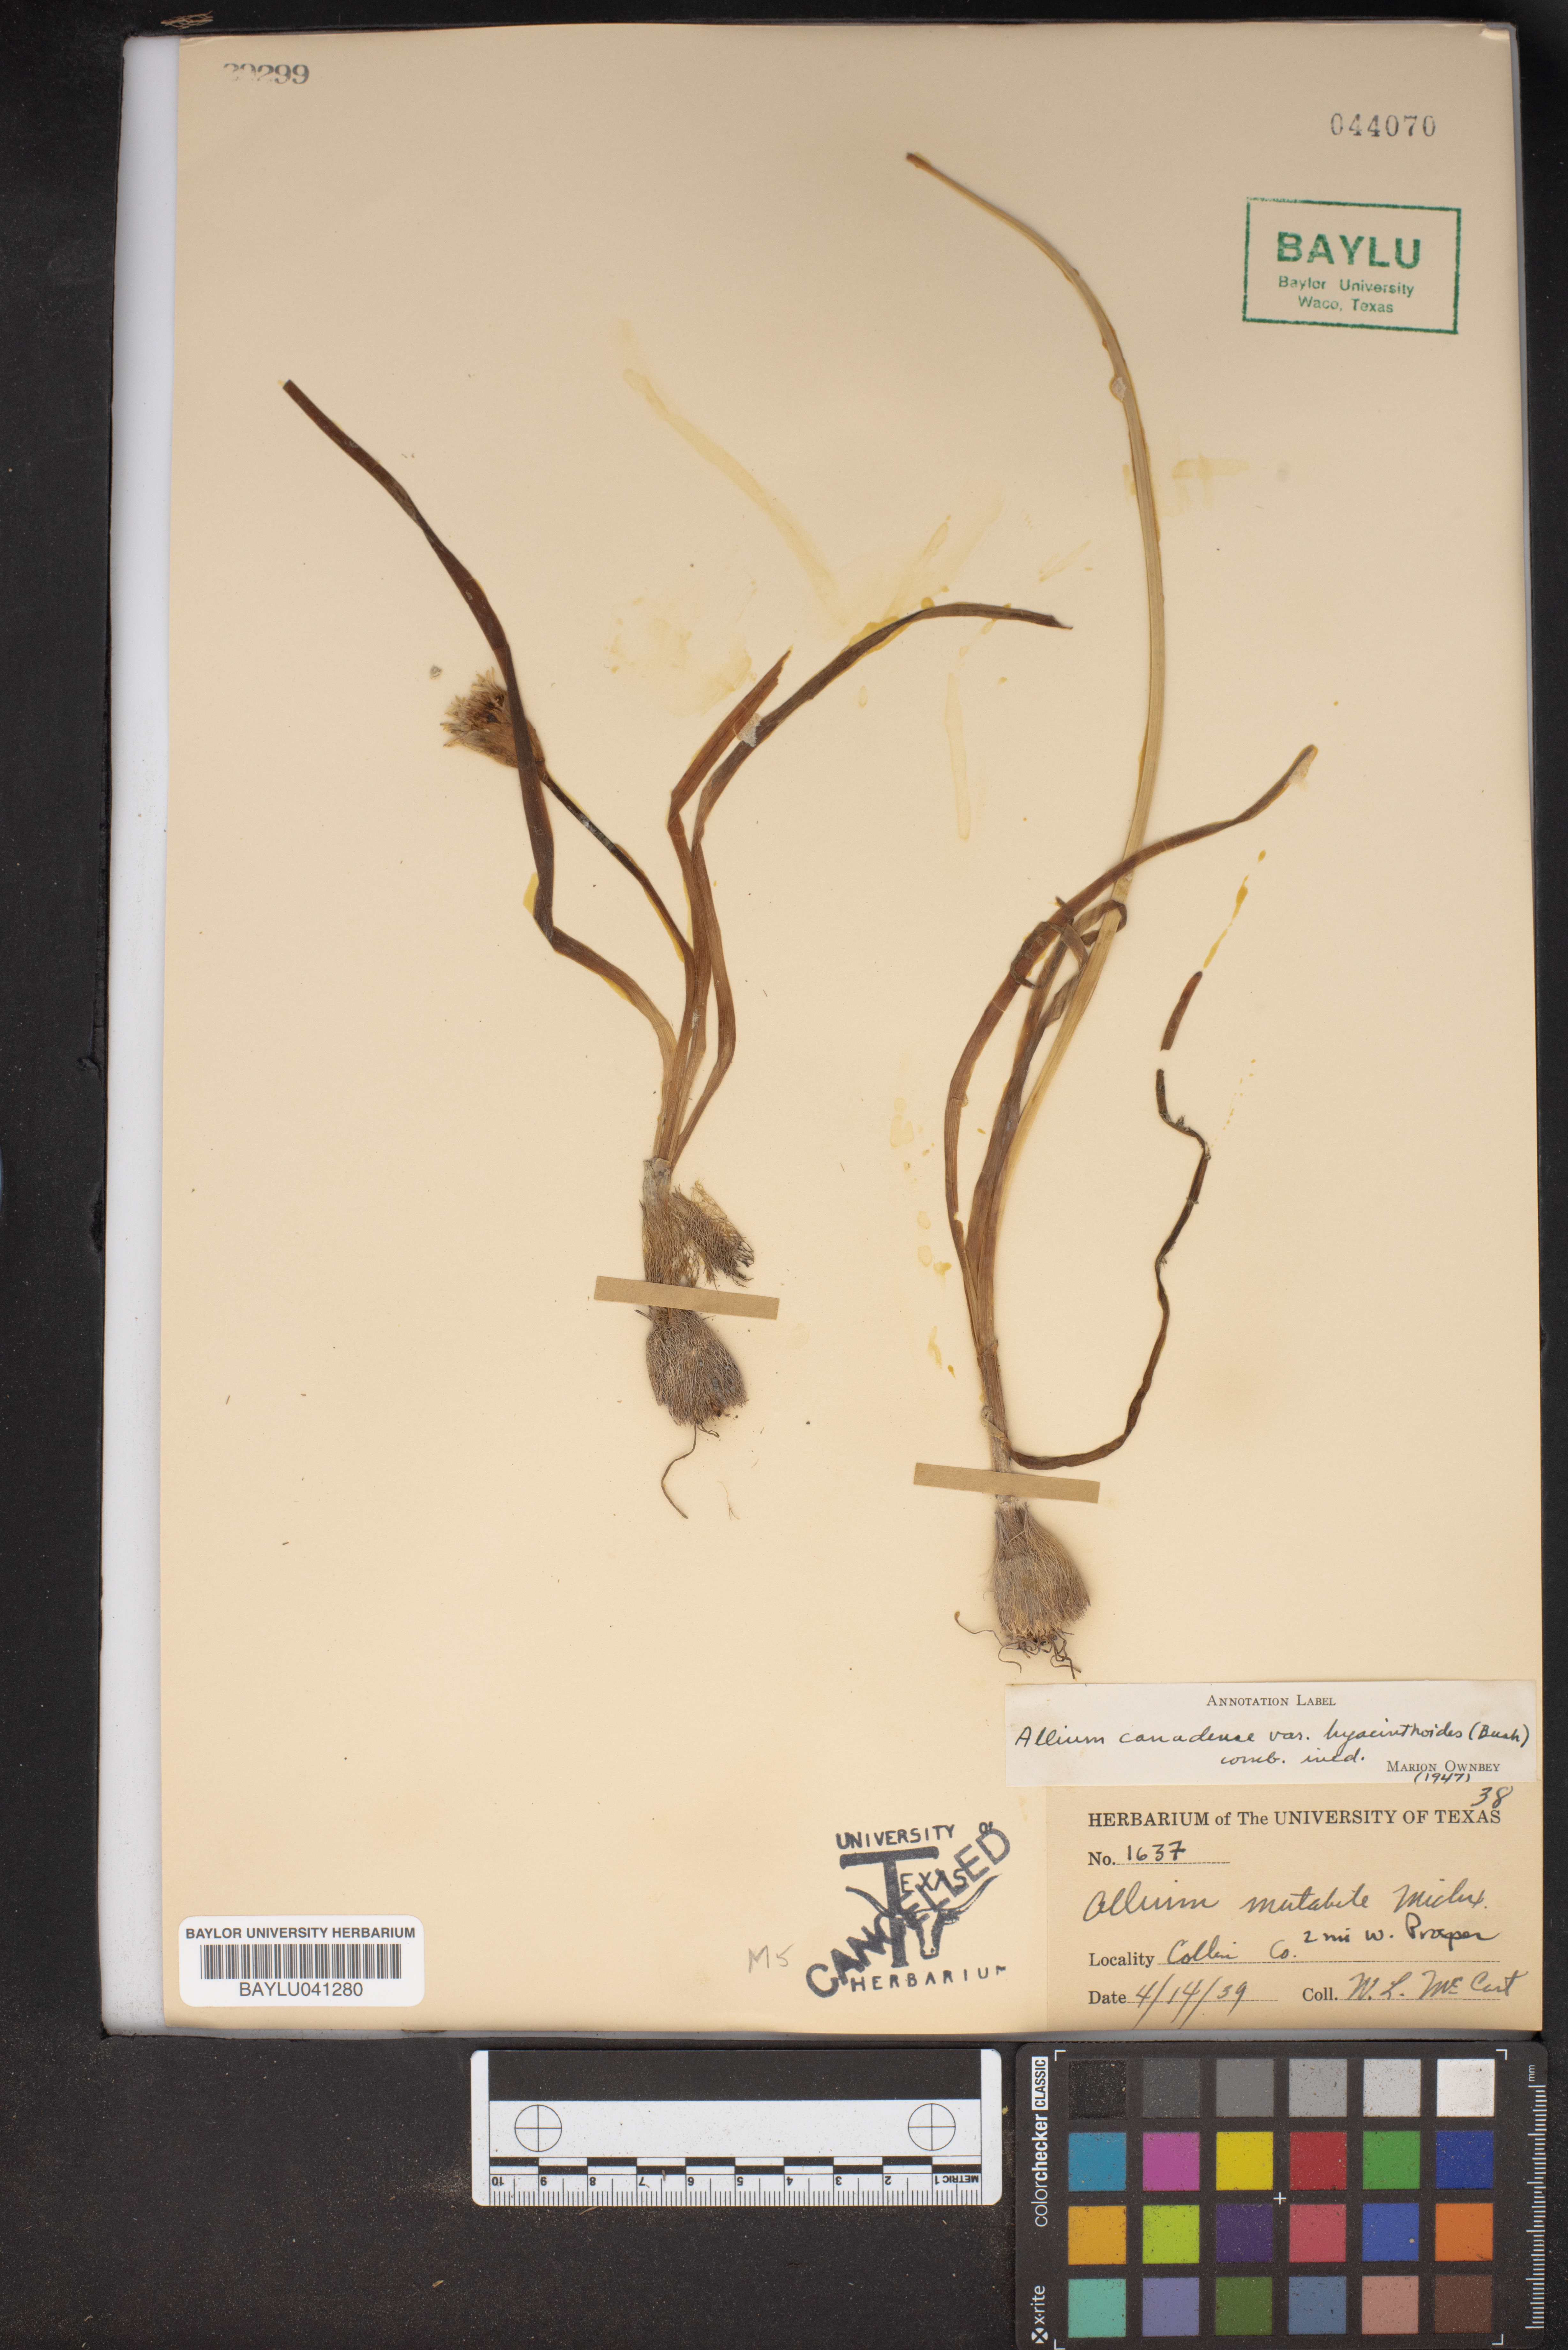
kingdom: Plantae
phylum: Tracheophyta
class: Liliopsida
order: Asparagales
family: Amaryllidaceae
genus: Allium
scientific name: Allium canadense
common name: Meadow garlic
